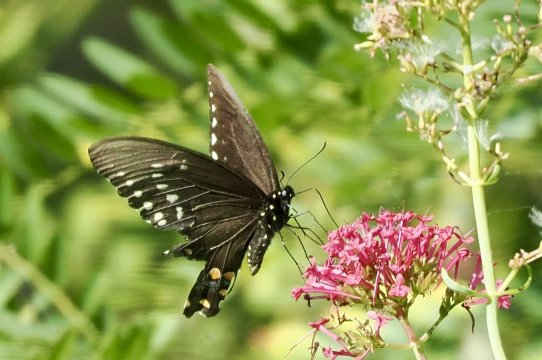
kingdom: Animalia
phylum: Arthropoda
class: Insecta
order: Lepidoptera
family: Papilionidae
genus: Pterourus
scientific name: Pterourus troilus
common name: Spicebush Swallowtail
